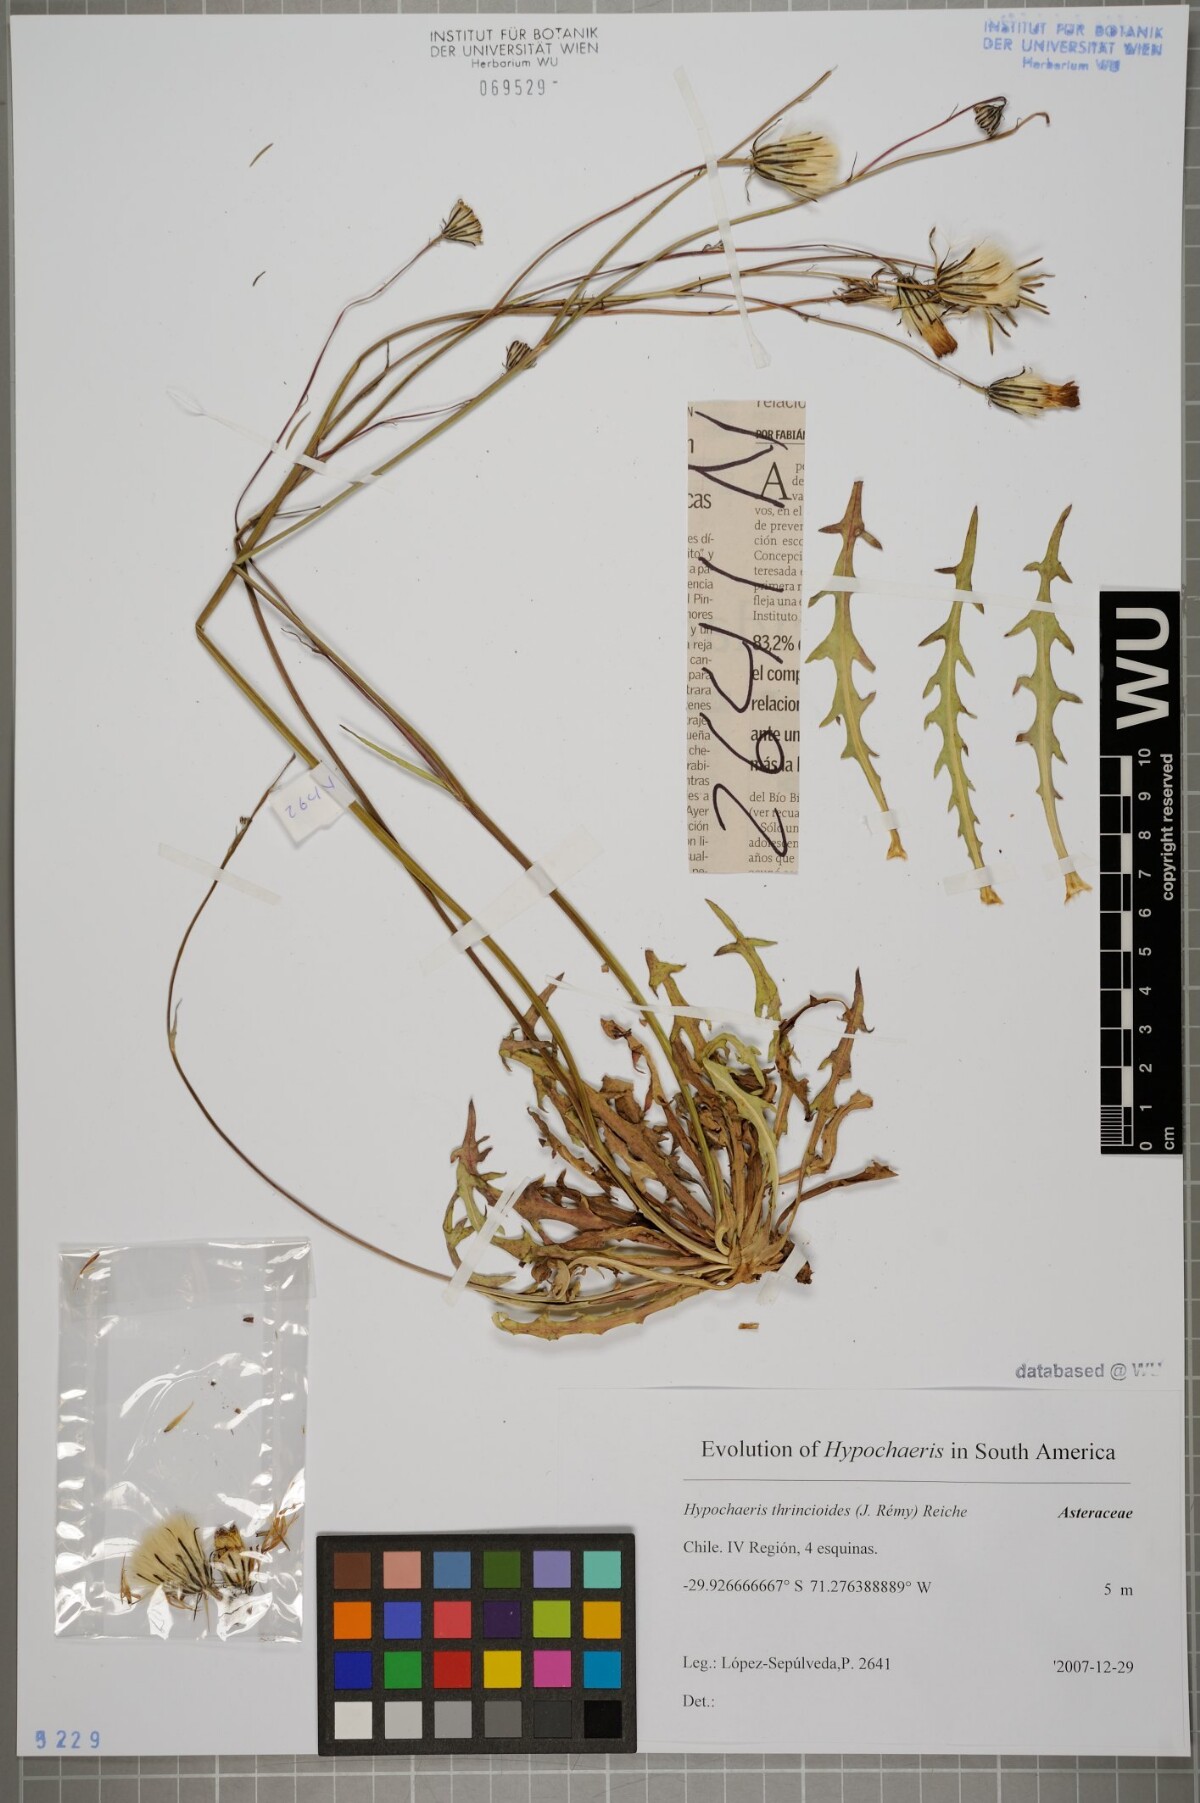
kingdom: Plantae
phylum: Tracheophyta
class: Magnoliopsida
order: Asterales
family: Asteraceae
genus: Hypochaeris
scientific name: Hypochaeris apargioides
